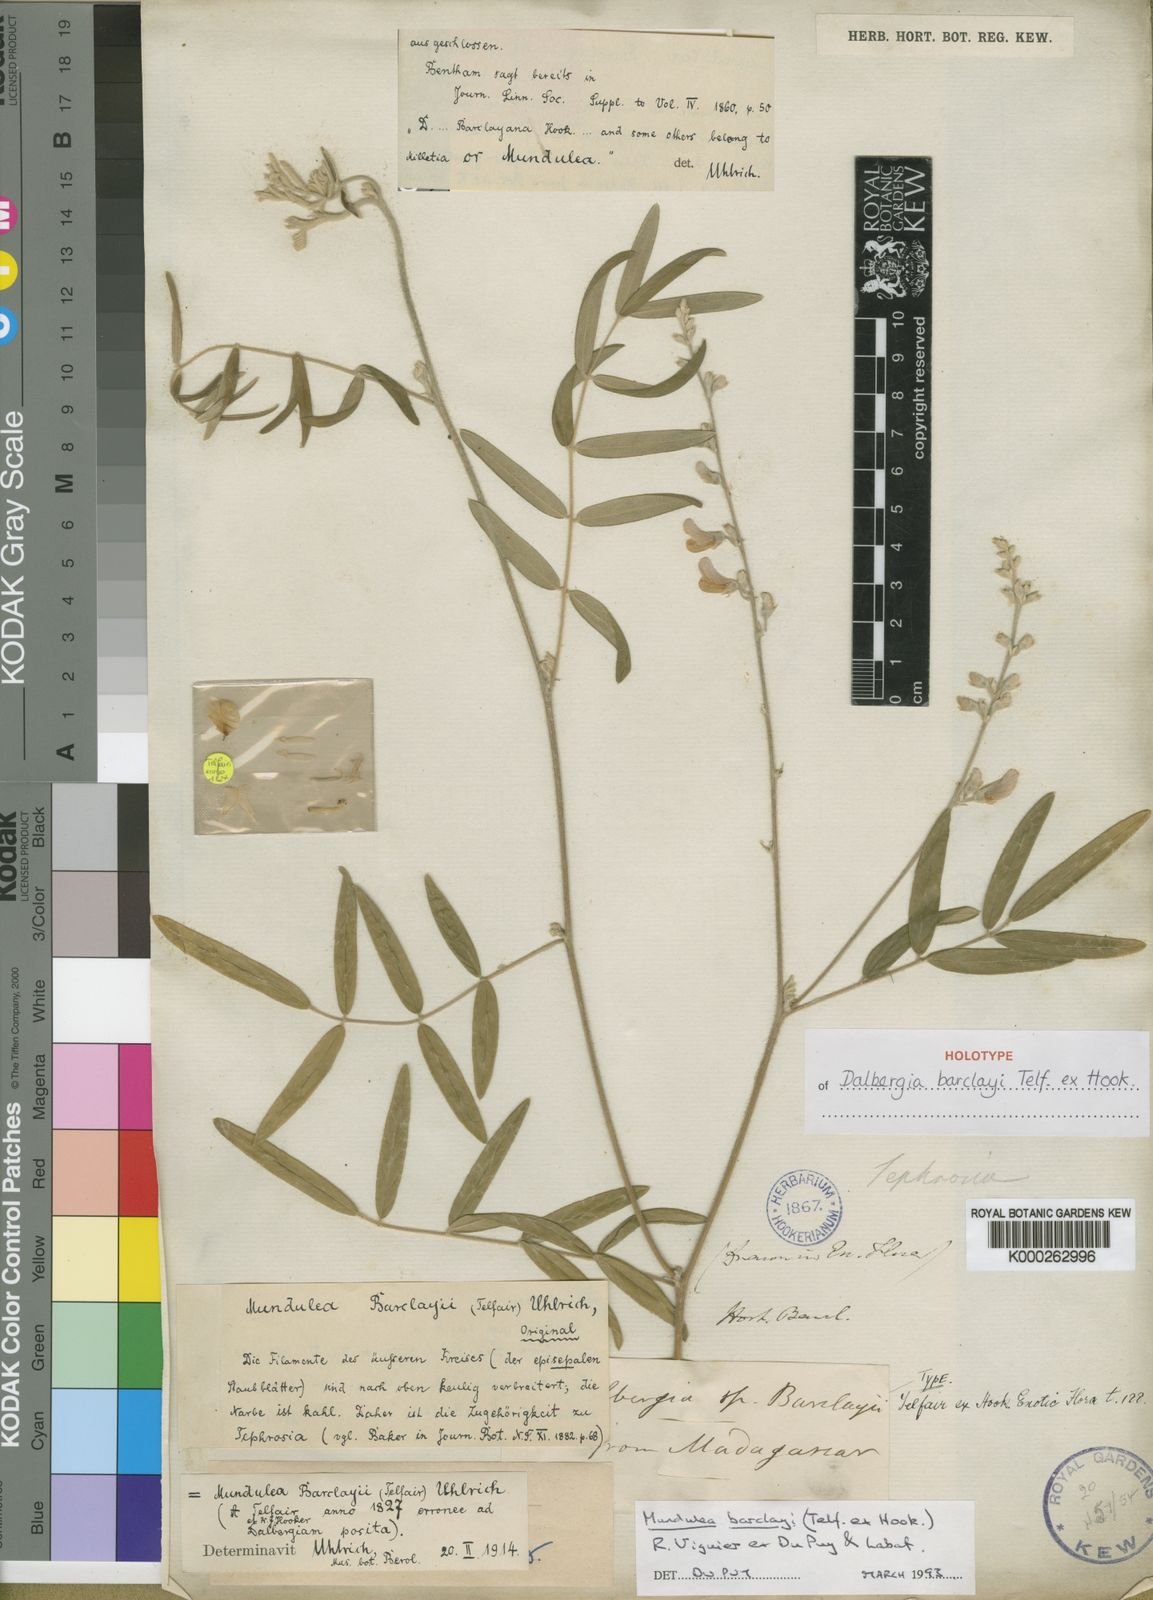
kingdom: Plantae
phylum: Tracheophyta
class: Magnoliopsida
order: Fabales
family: Fabaceae
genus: Mundulea
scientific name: Mundulea
